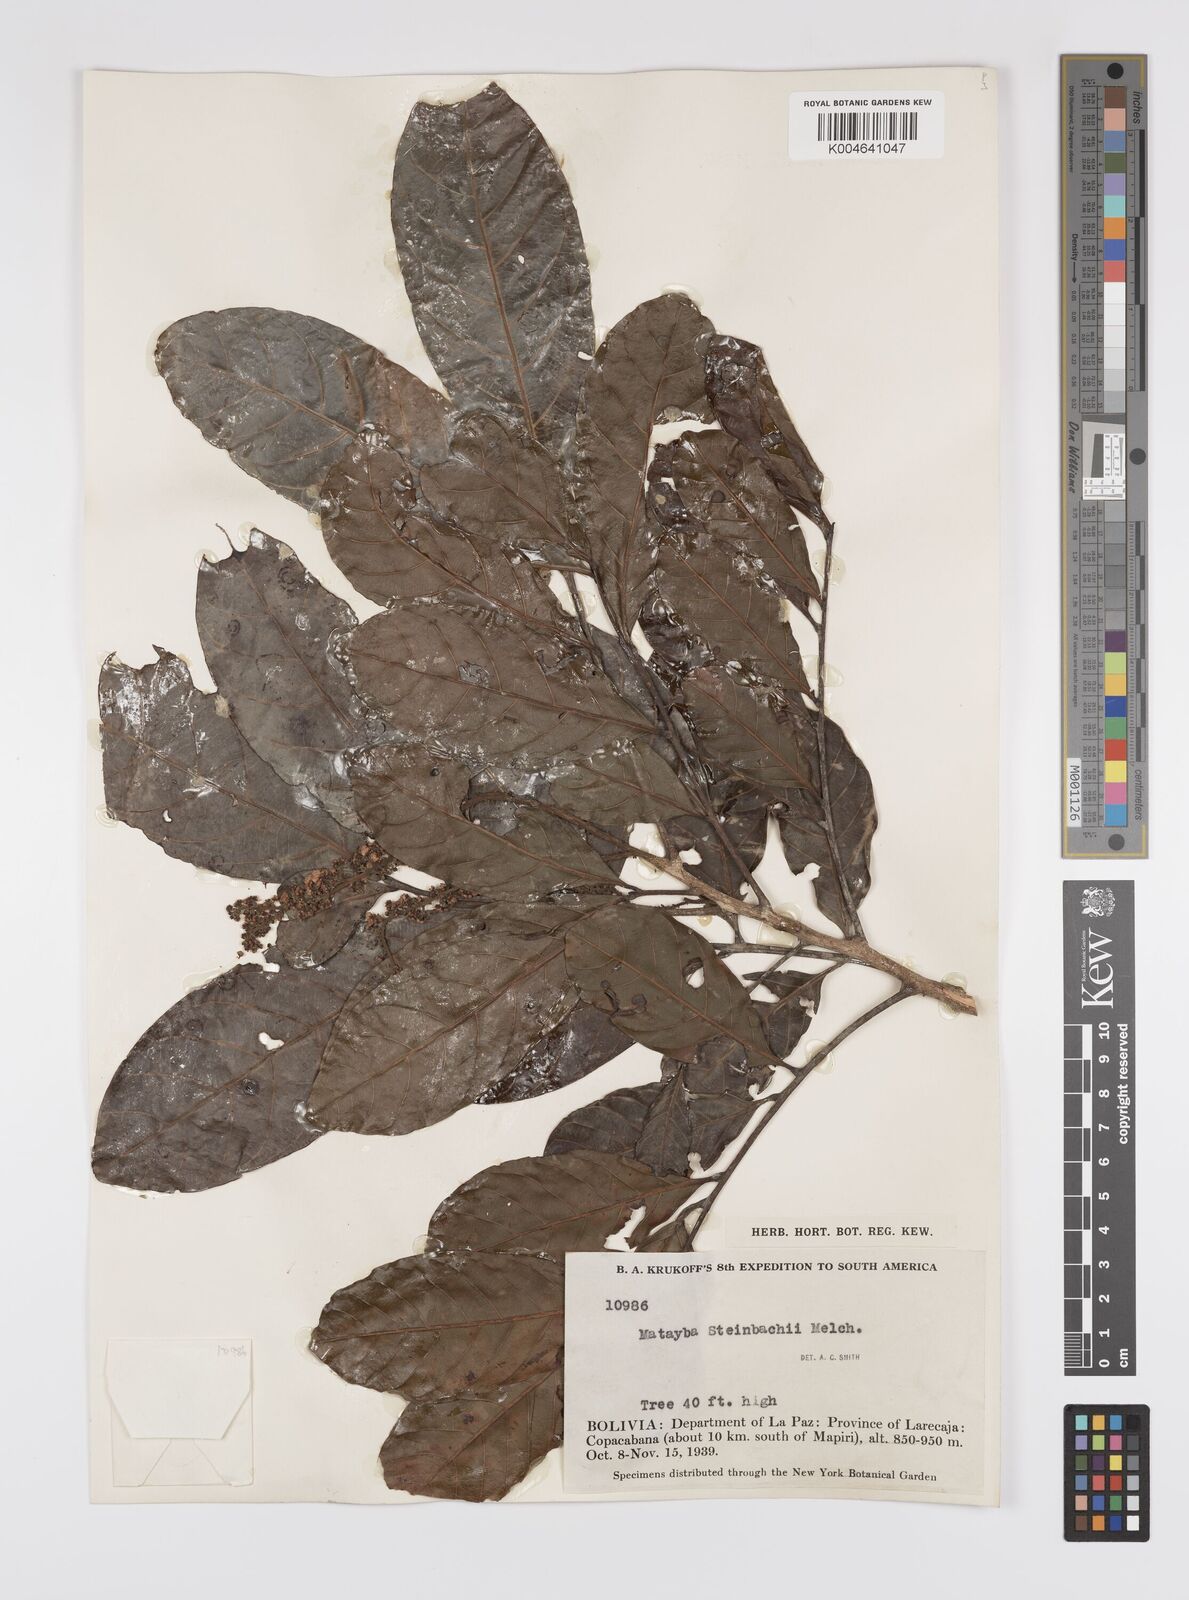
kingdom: Plantae
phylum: Tracheophyta
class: Magnoliopsida
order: Sapindales
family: Sapindaceae
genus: Matayba
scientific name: Matayba guianensis
